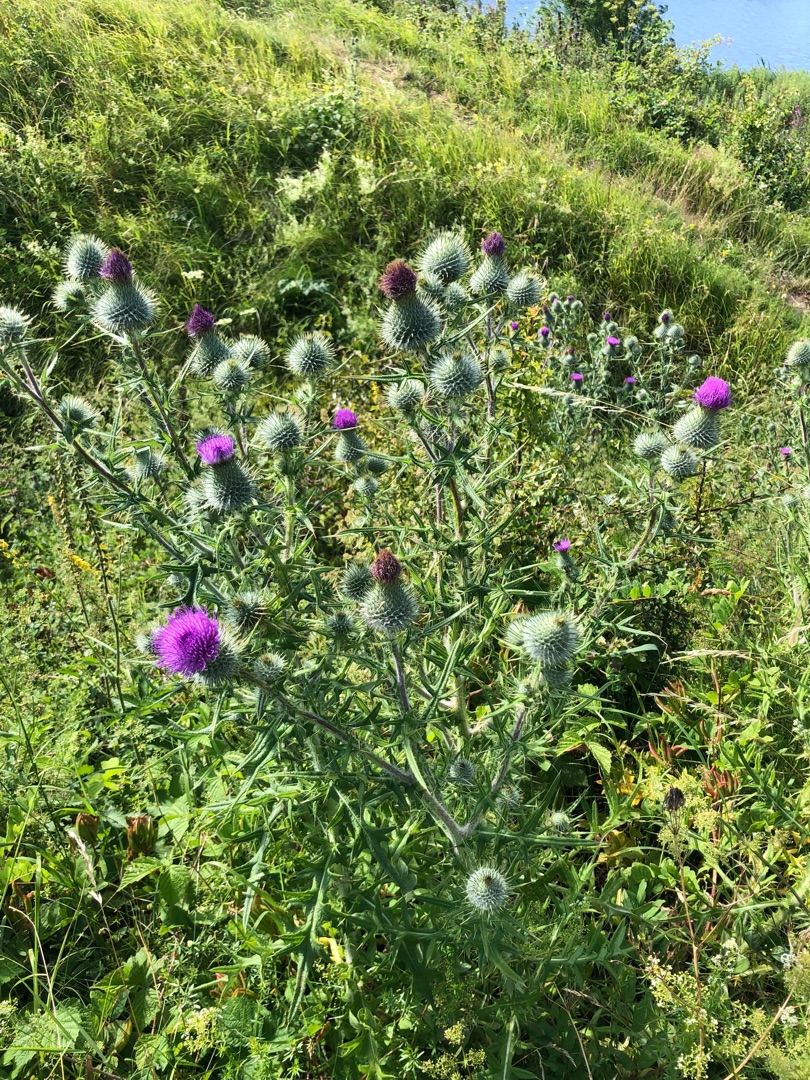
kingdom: Plantae
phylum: Tracheophyta
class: Magnoliopsida
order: Asterales
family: Asteraceae
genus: Cirsium
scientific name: Cirsium vulgare
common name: Horse-tidsel
